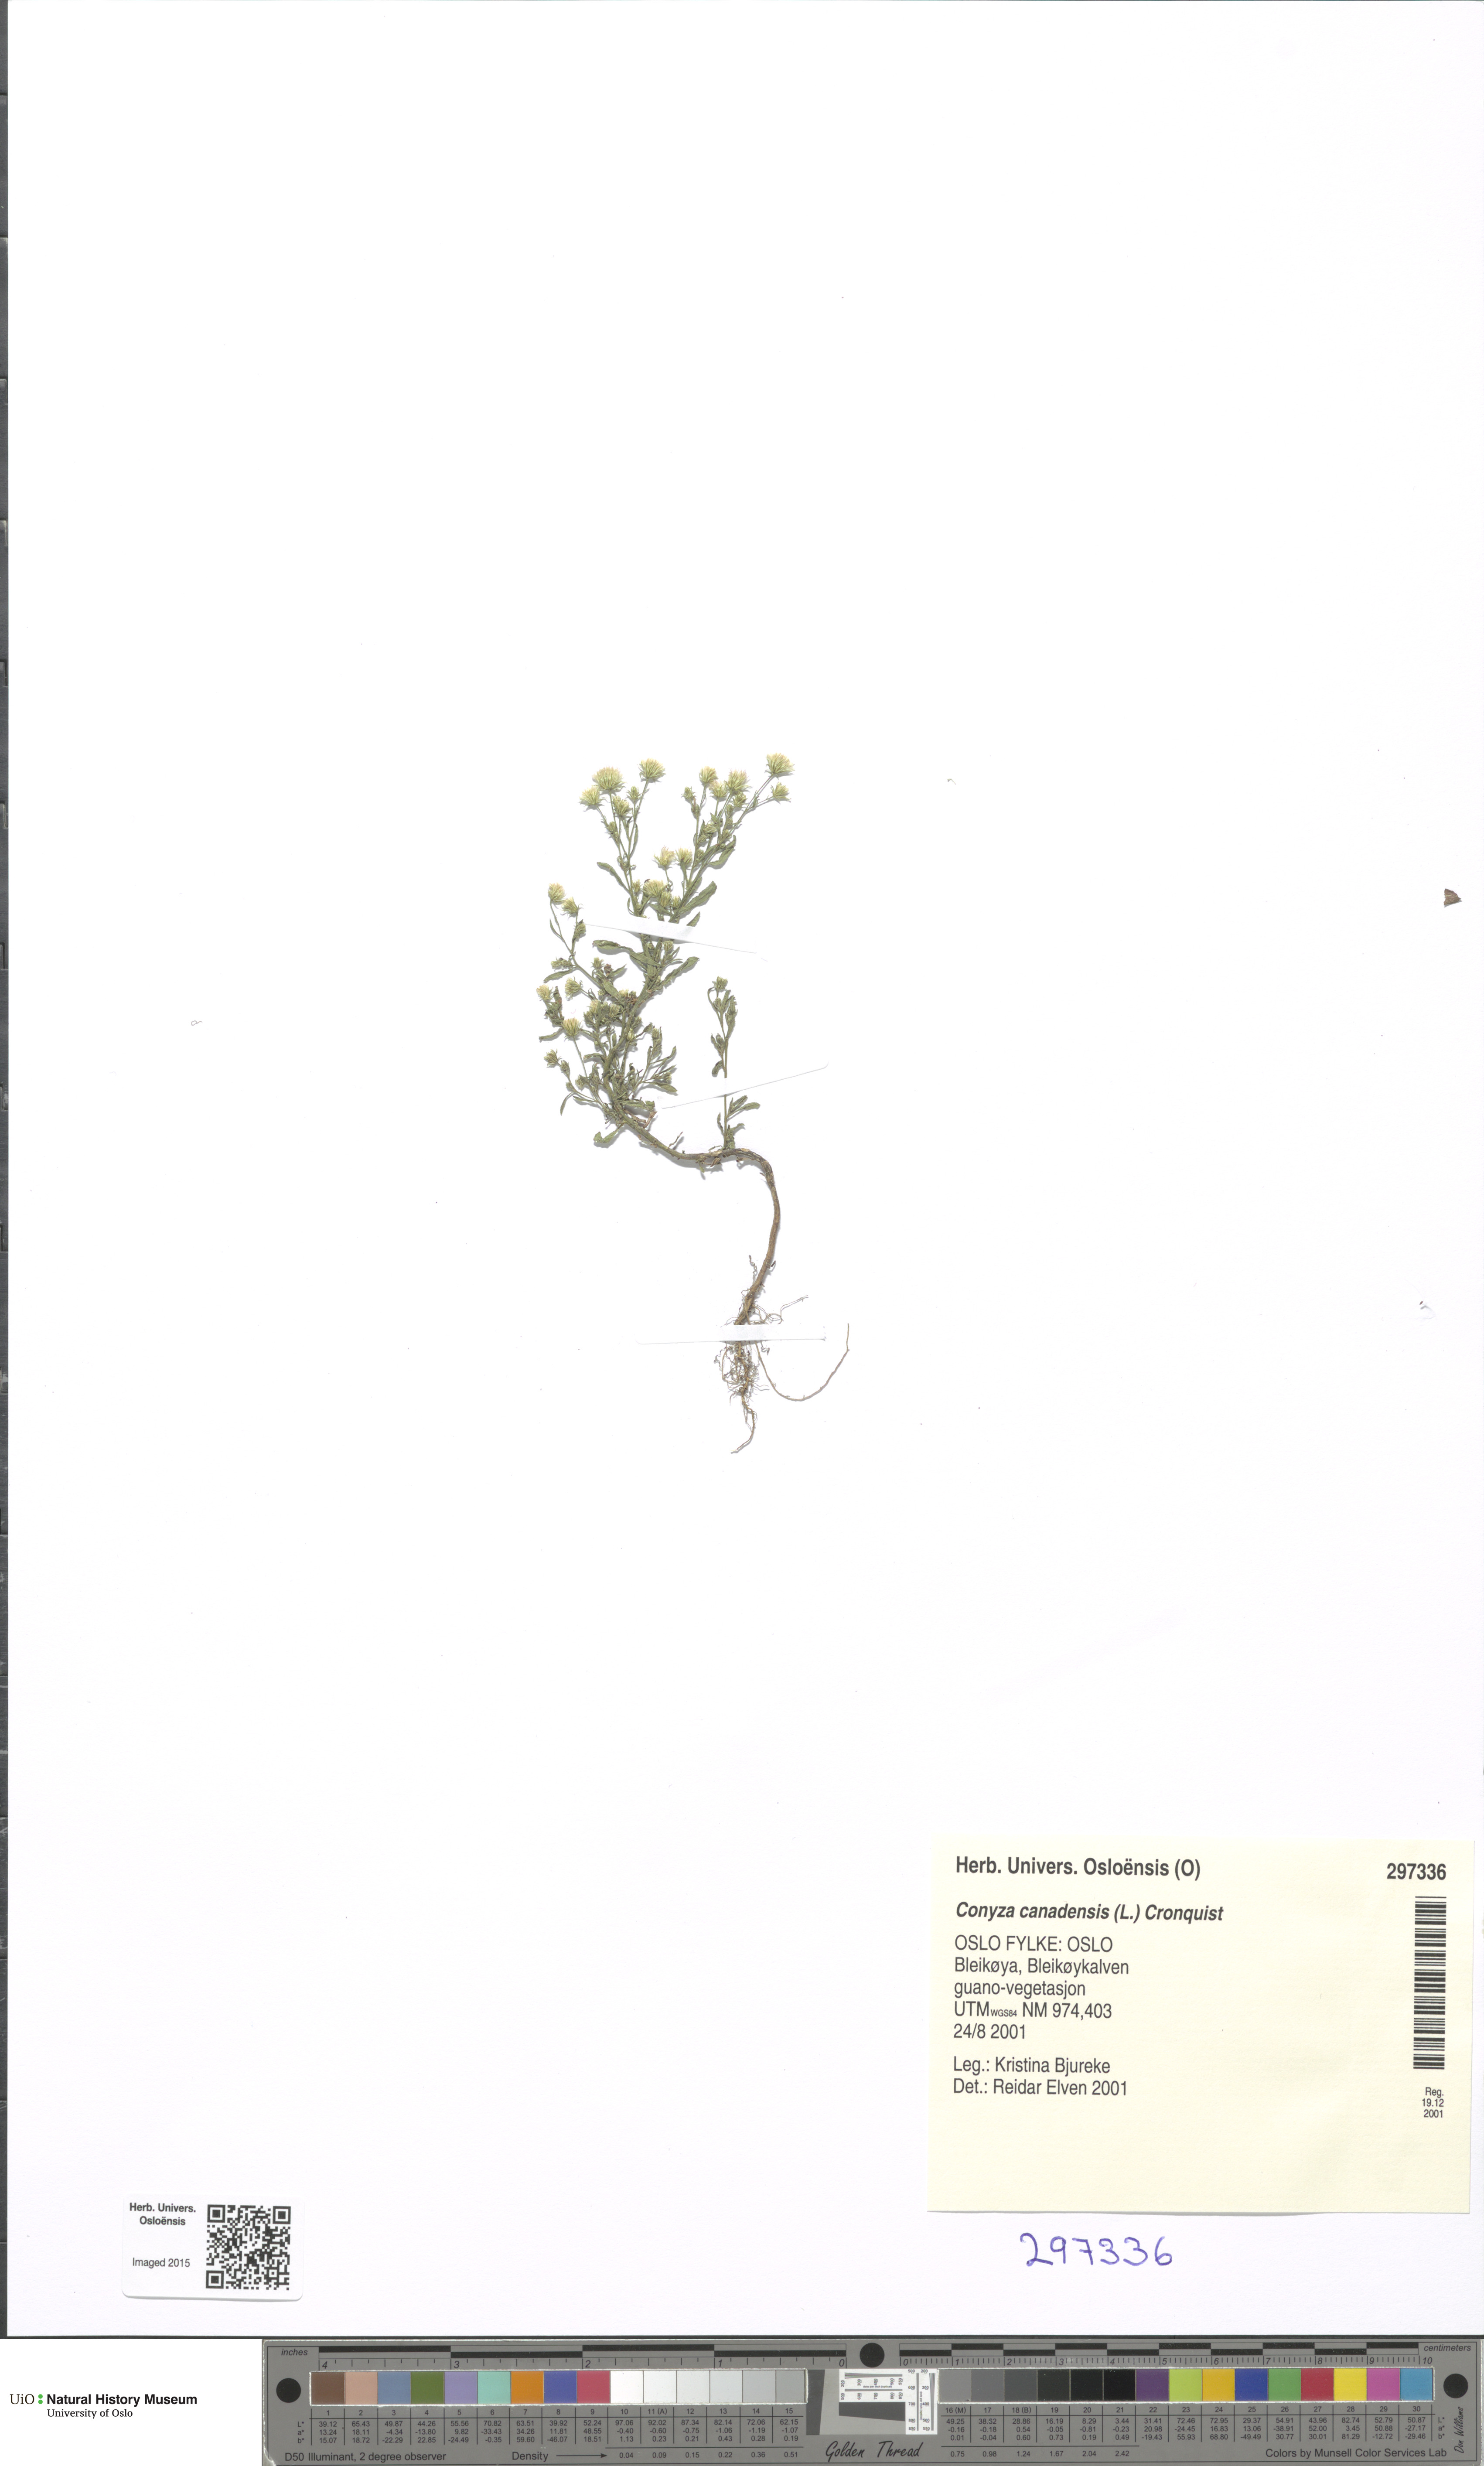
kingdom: Plantae
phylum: Tracheophyta
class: Magnoliopsida
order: Asterales
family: Asteraceae
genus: Erigeron
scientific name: Erigeron canadensis
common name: Canadian fleabane
